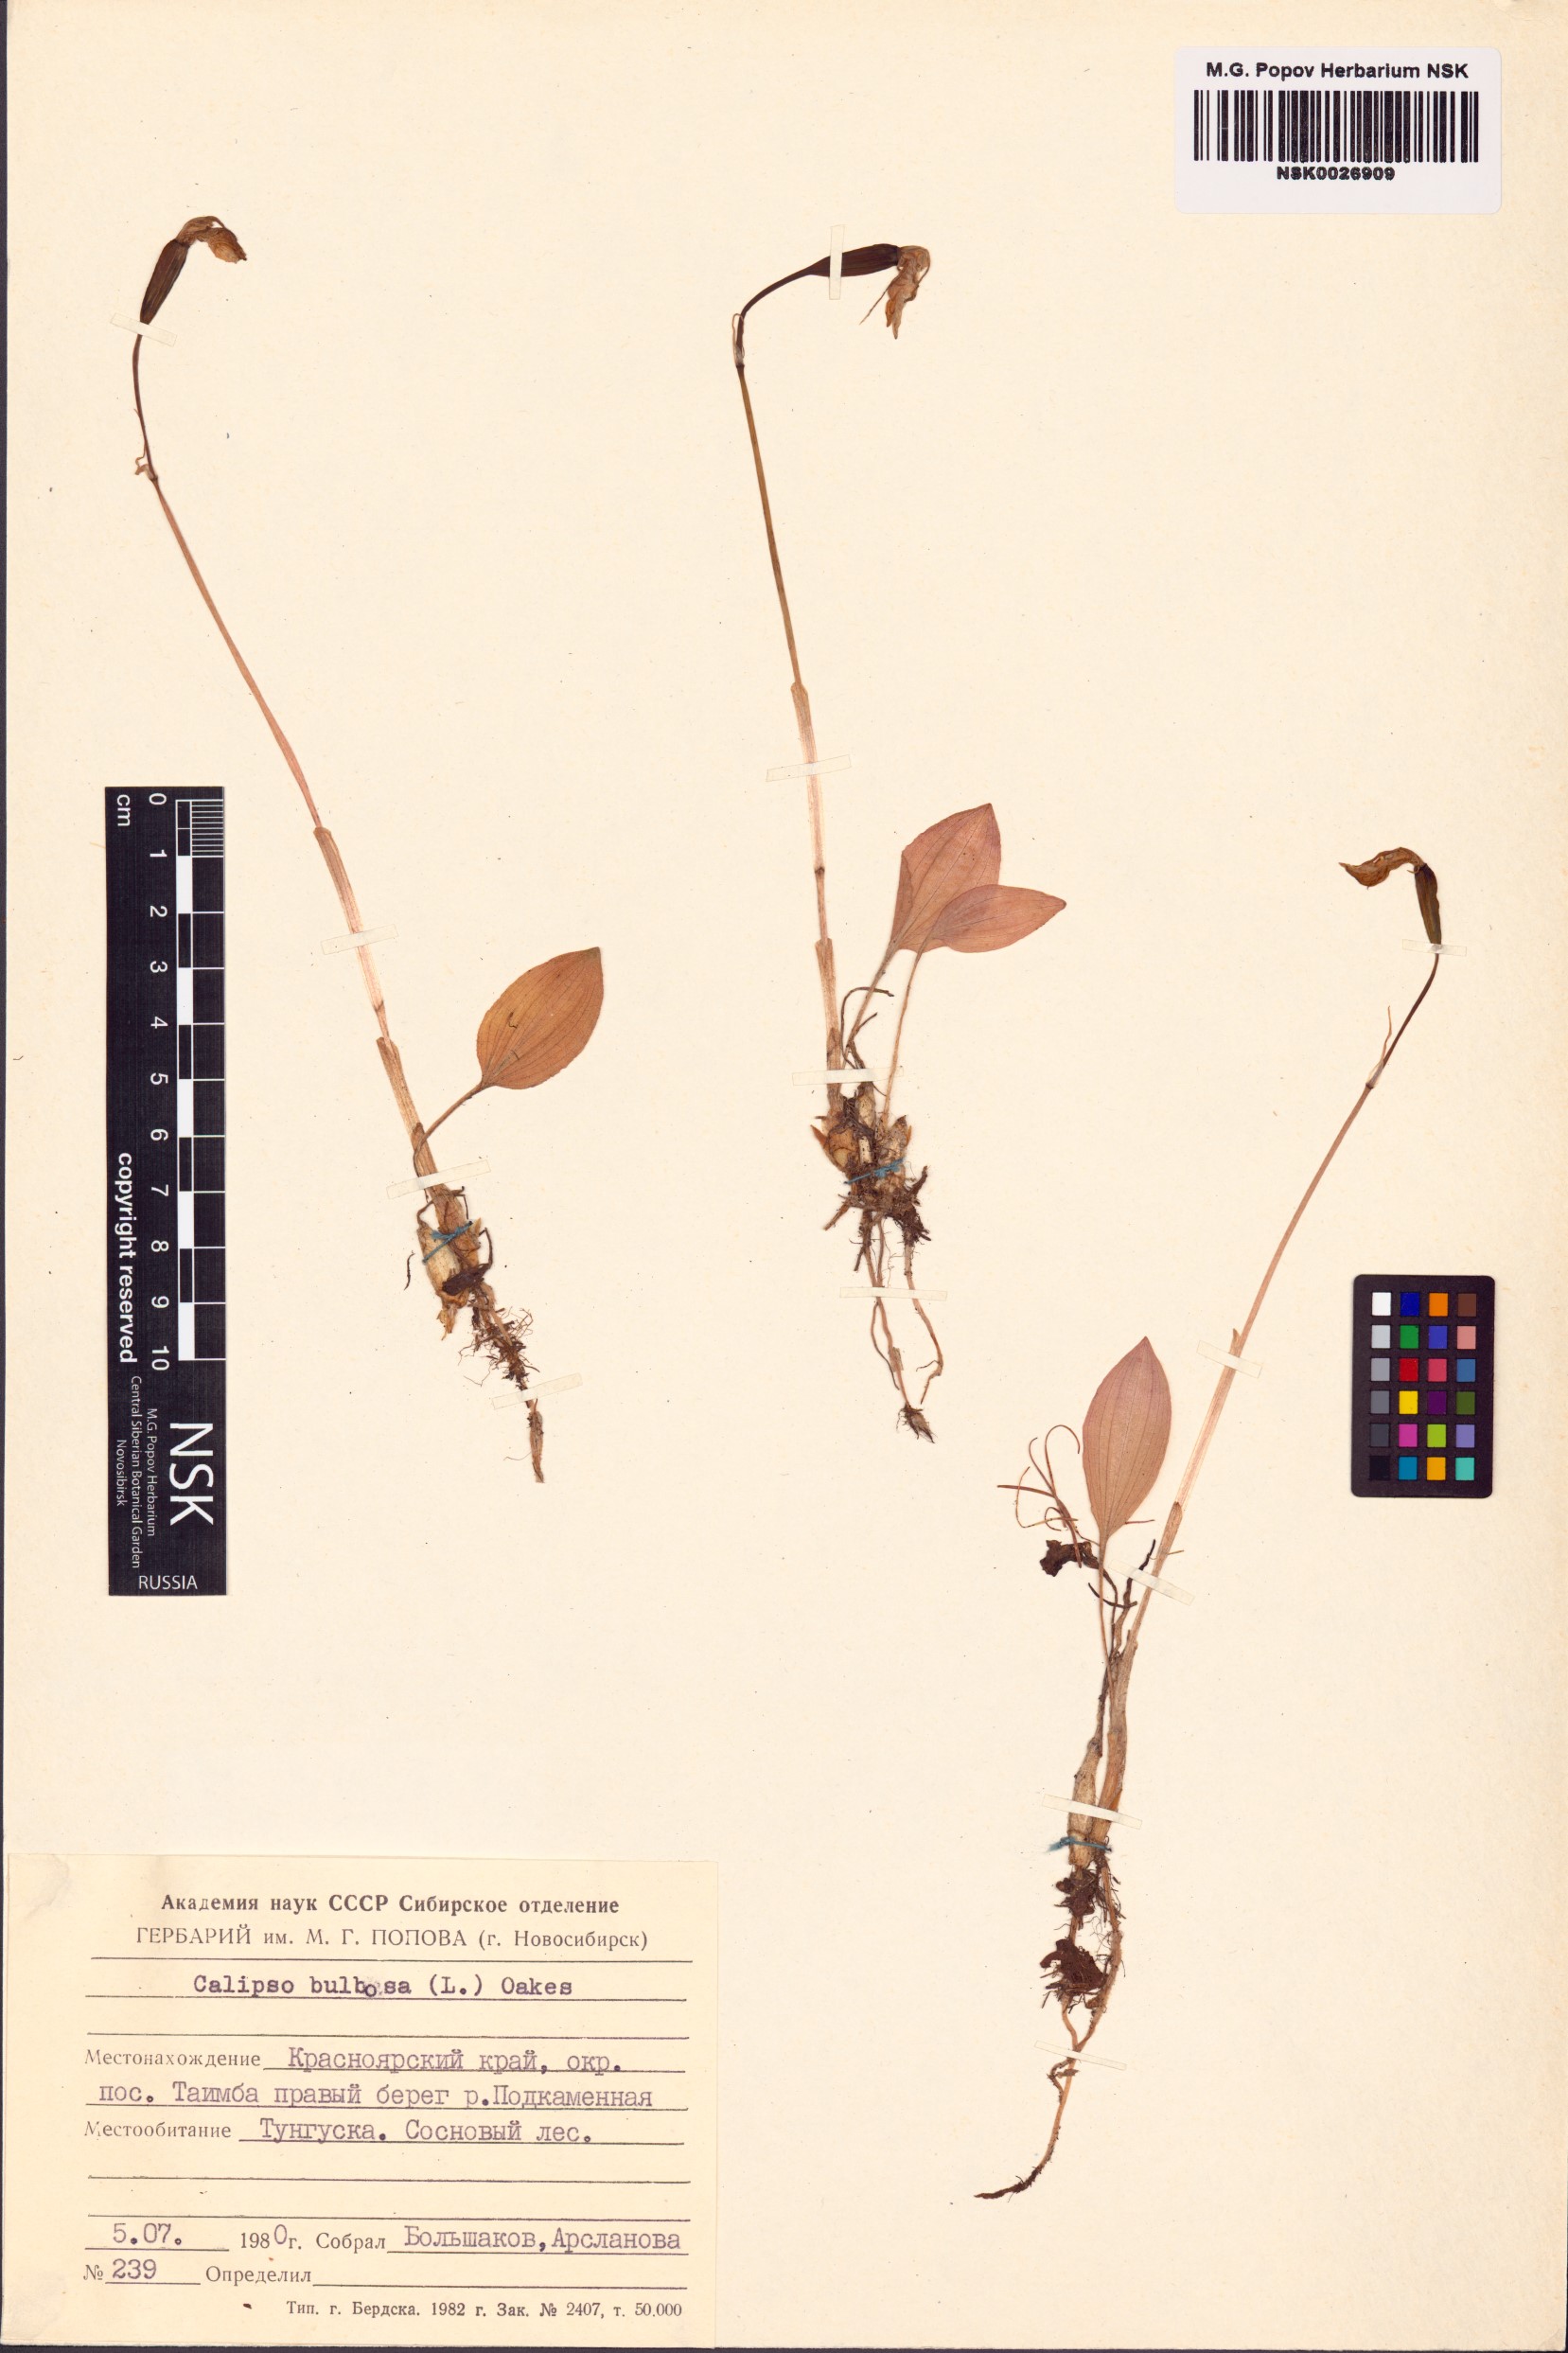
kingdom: Plantae
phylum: Tracheophyta
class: Liliopsida
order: Asparagales
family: Orchidaceae
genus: Calypso
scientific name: Calypso bulbosa
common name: Calypso
